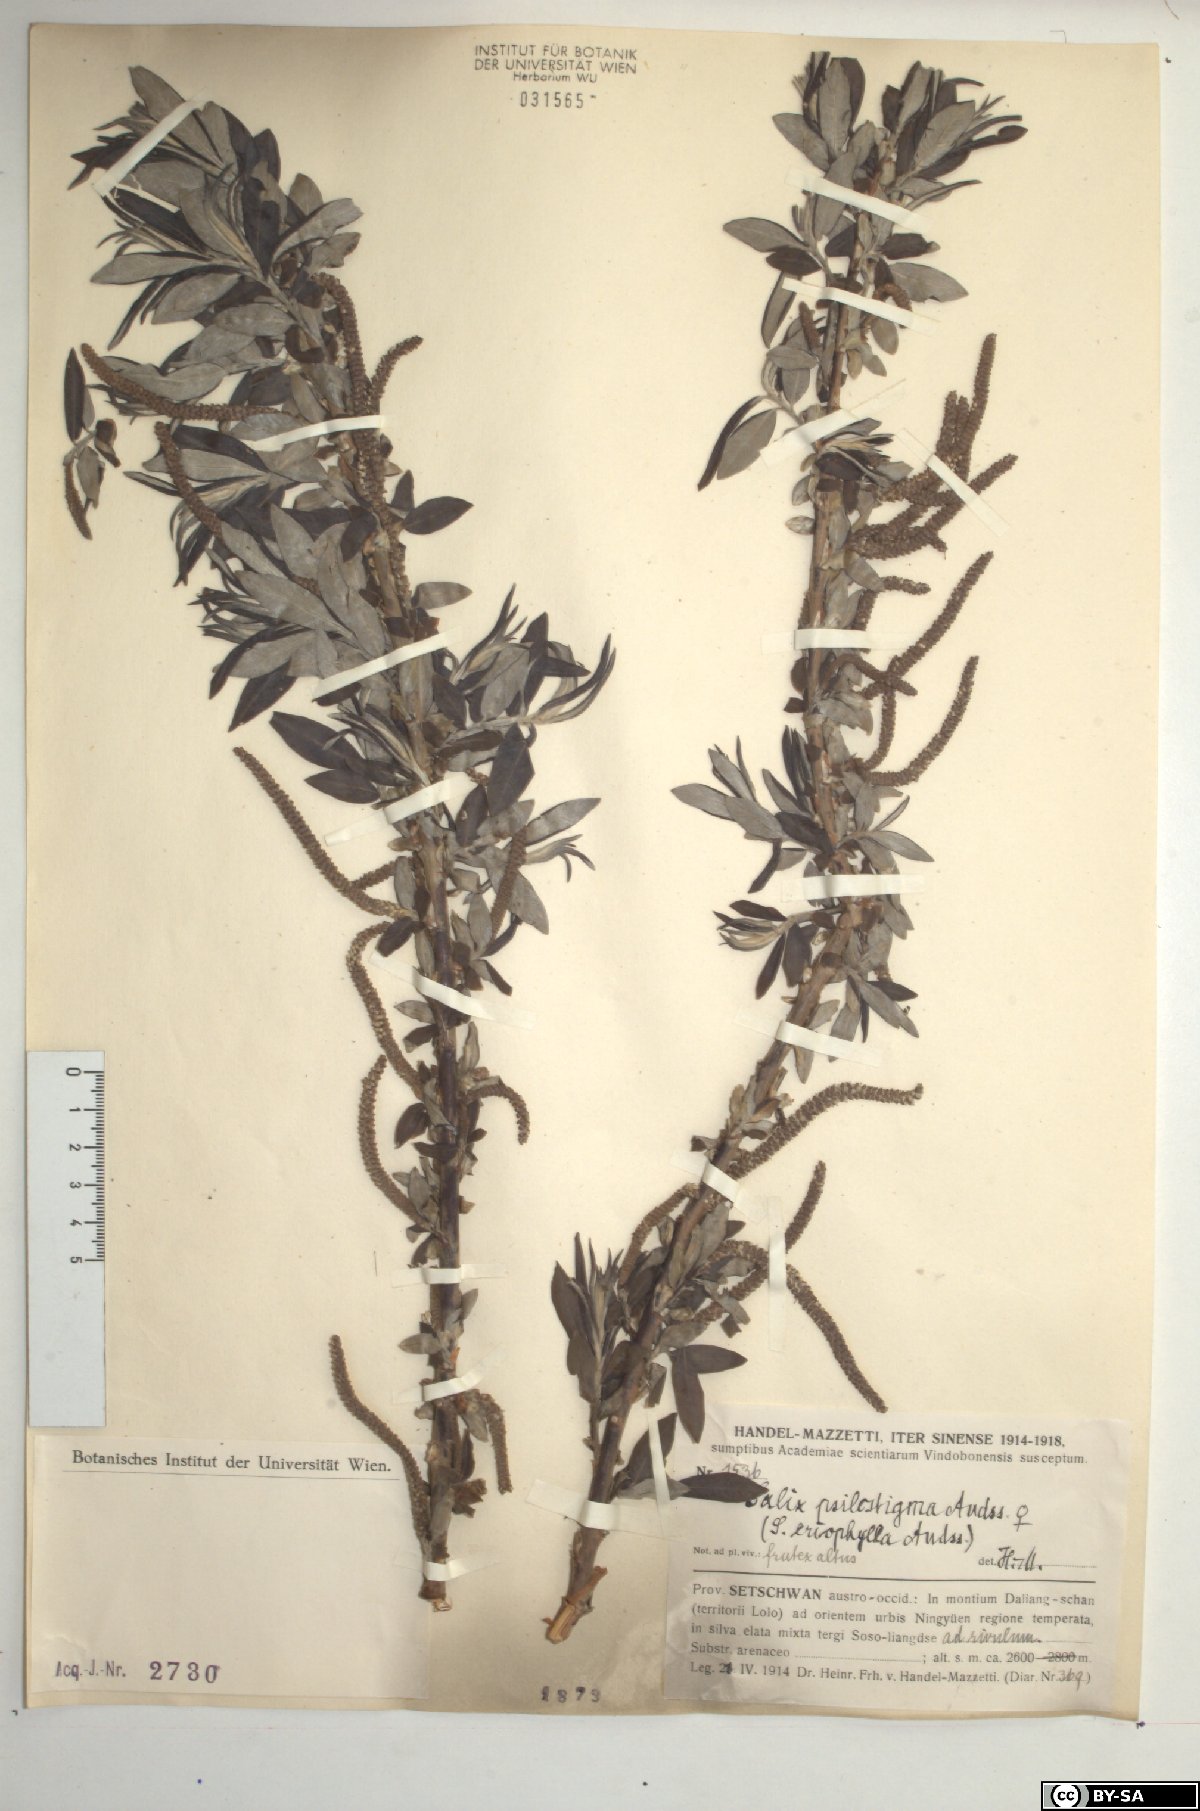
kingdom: Plantae
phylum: Tracheophyta
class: Magnoliopsida
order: Malpighiales
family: Salicaceae
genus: Salix
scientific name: Salix psilostigma
